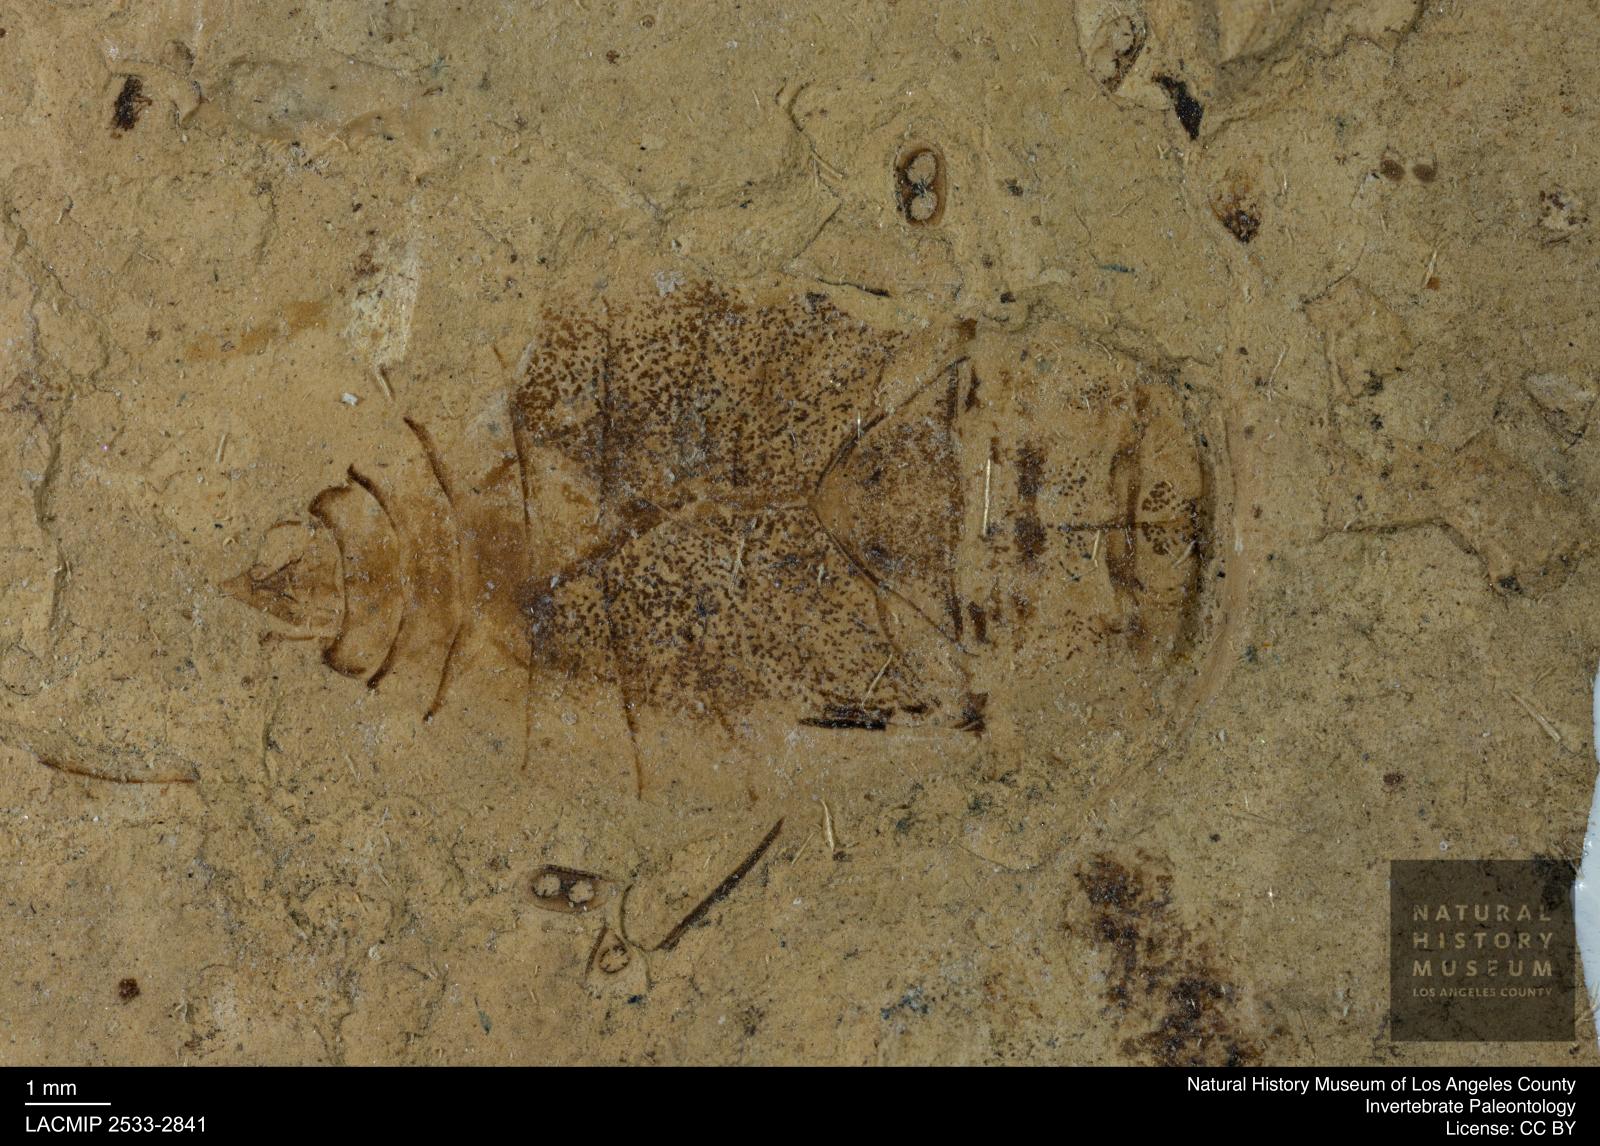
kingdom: Animalia
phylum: Arthropoda
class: Insecta
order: Hemiptera
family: Naucoridae
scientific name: Naucoridae
